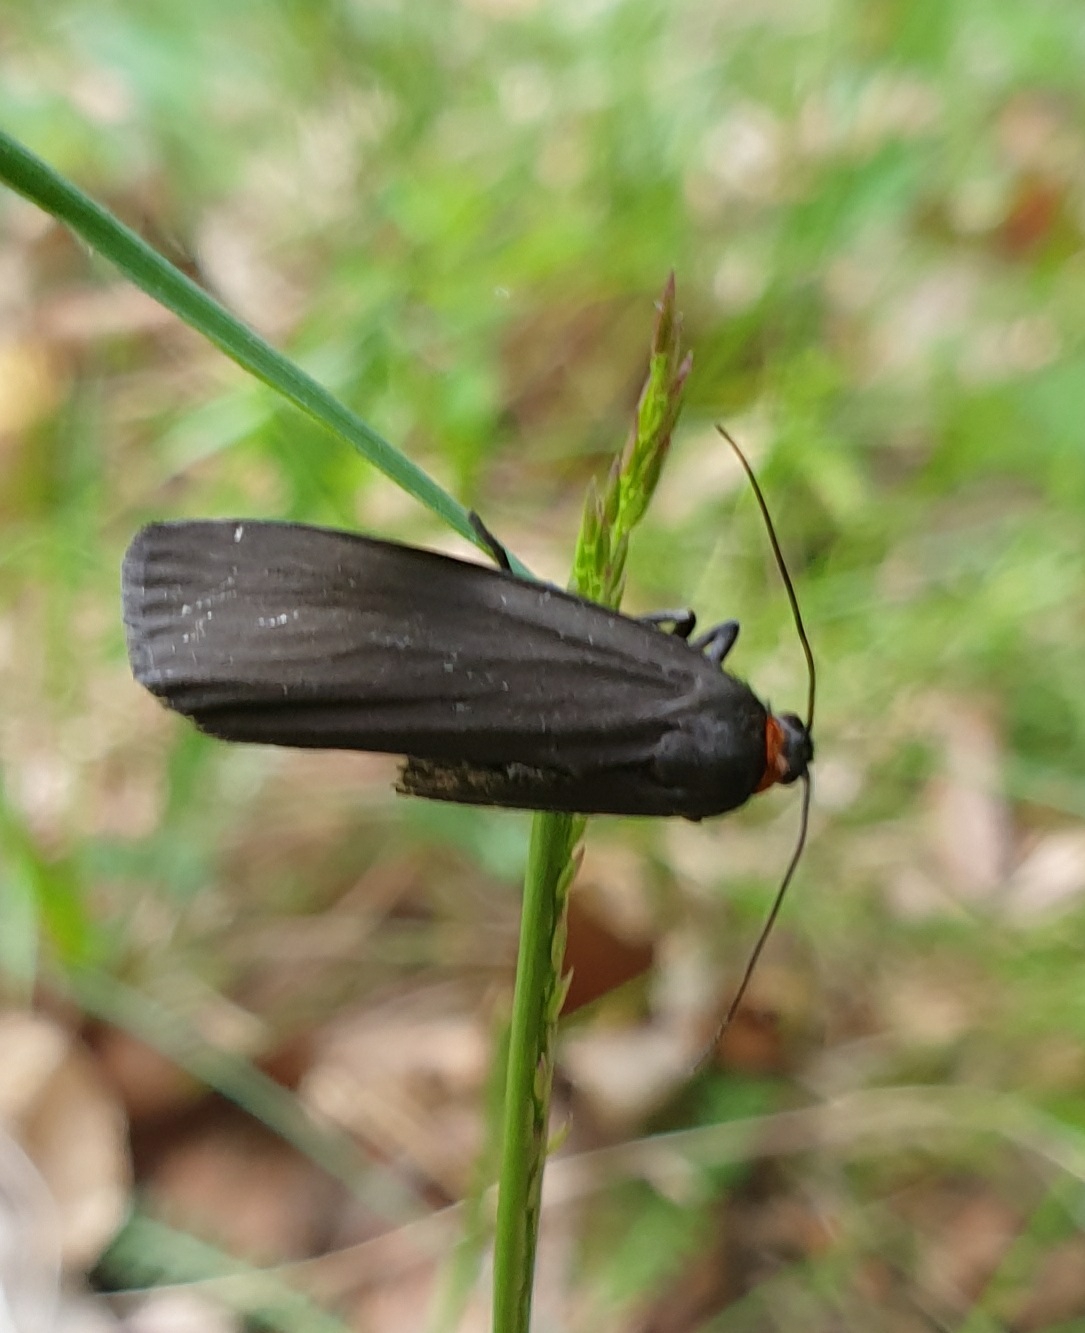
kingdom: Animalia
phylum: Arthropoda
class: Insecta
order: Lepidoptera
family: Erebidae
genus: Atolmis
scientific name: Atolmis rubricollis
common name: Blodnakke
